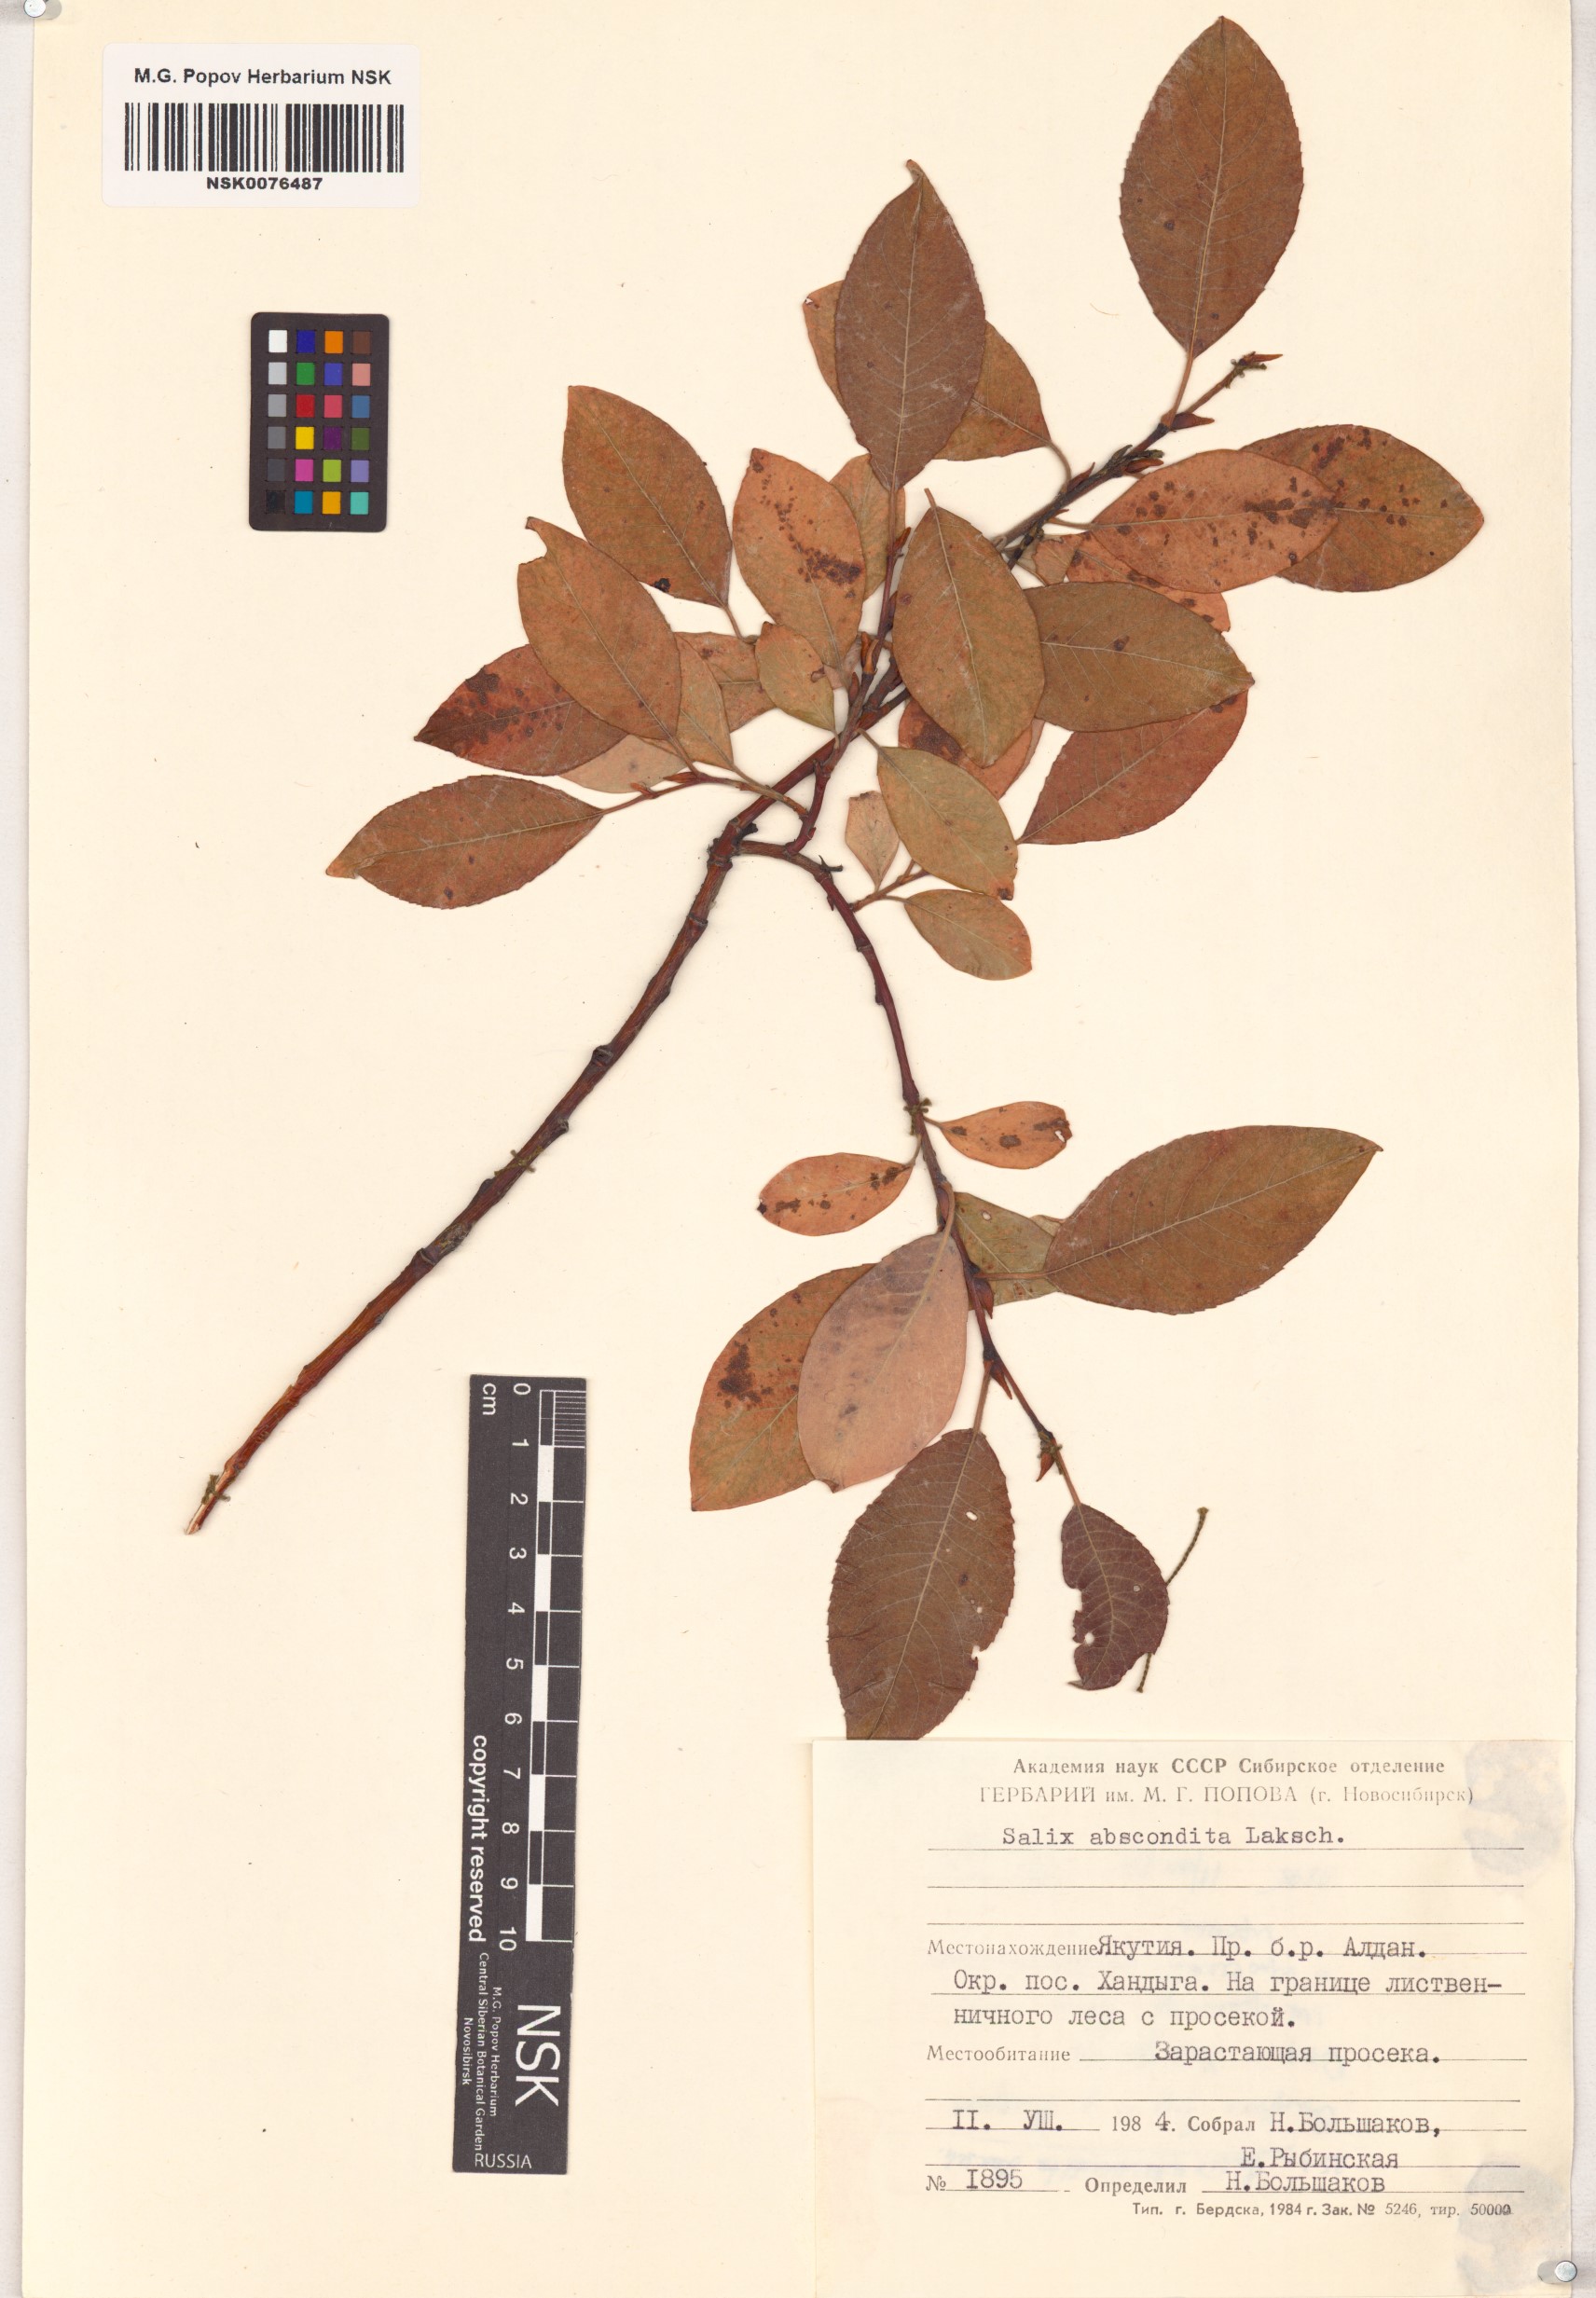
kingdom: Plantae
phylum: Tracheophyta
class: Magnoliopsida
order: Malpighiales
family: Salicaceae
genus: Salix
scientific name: Salix abscondita
